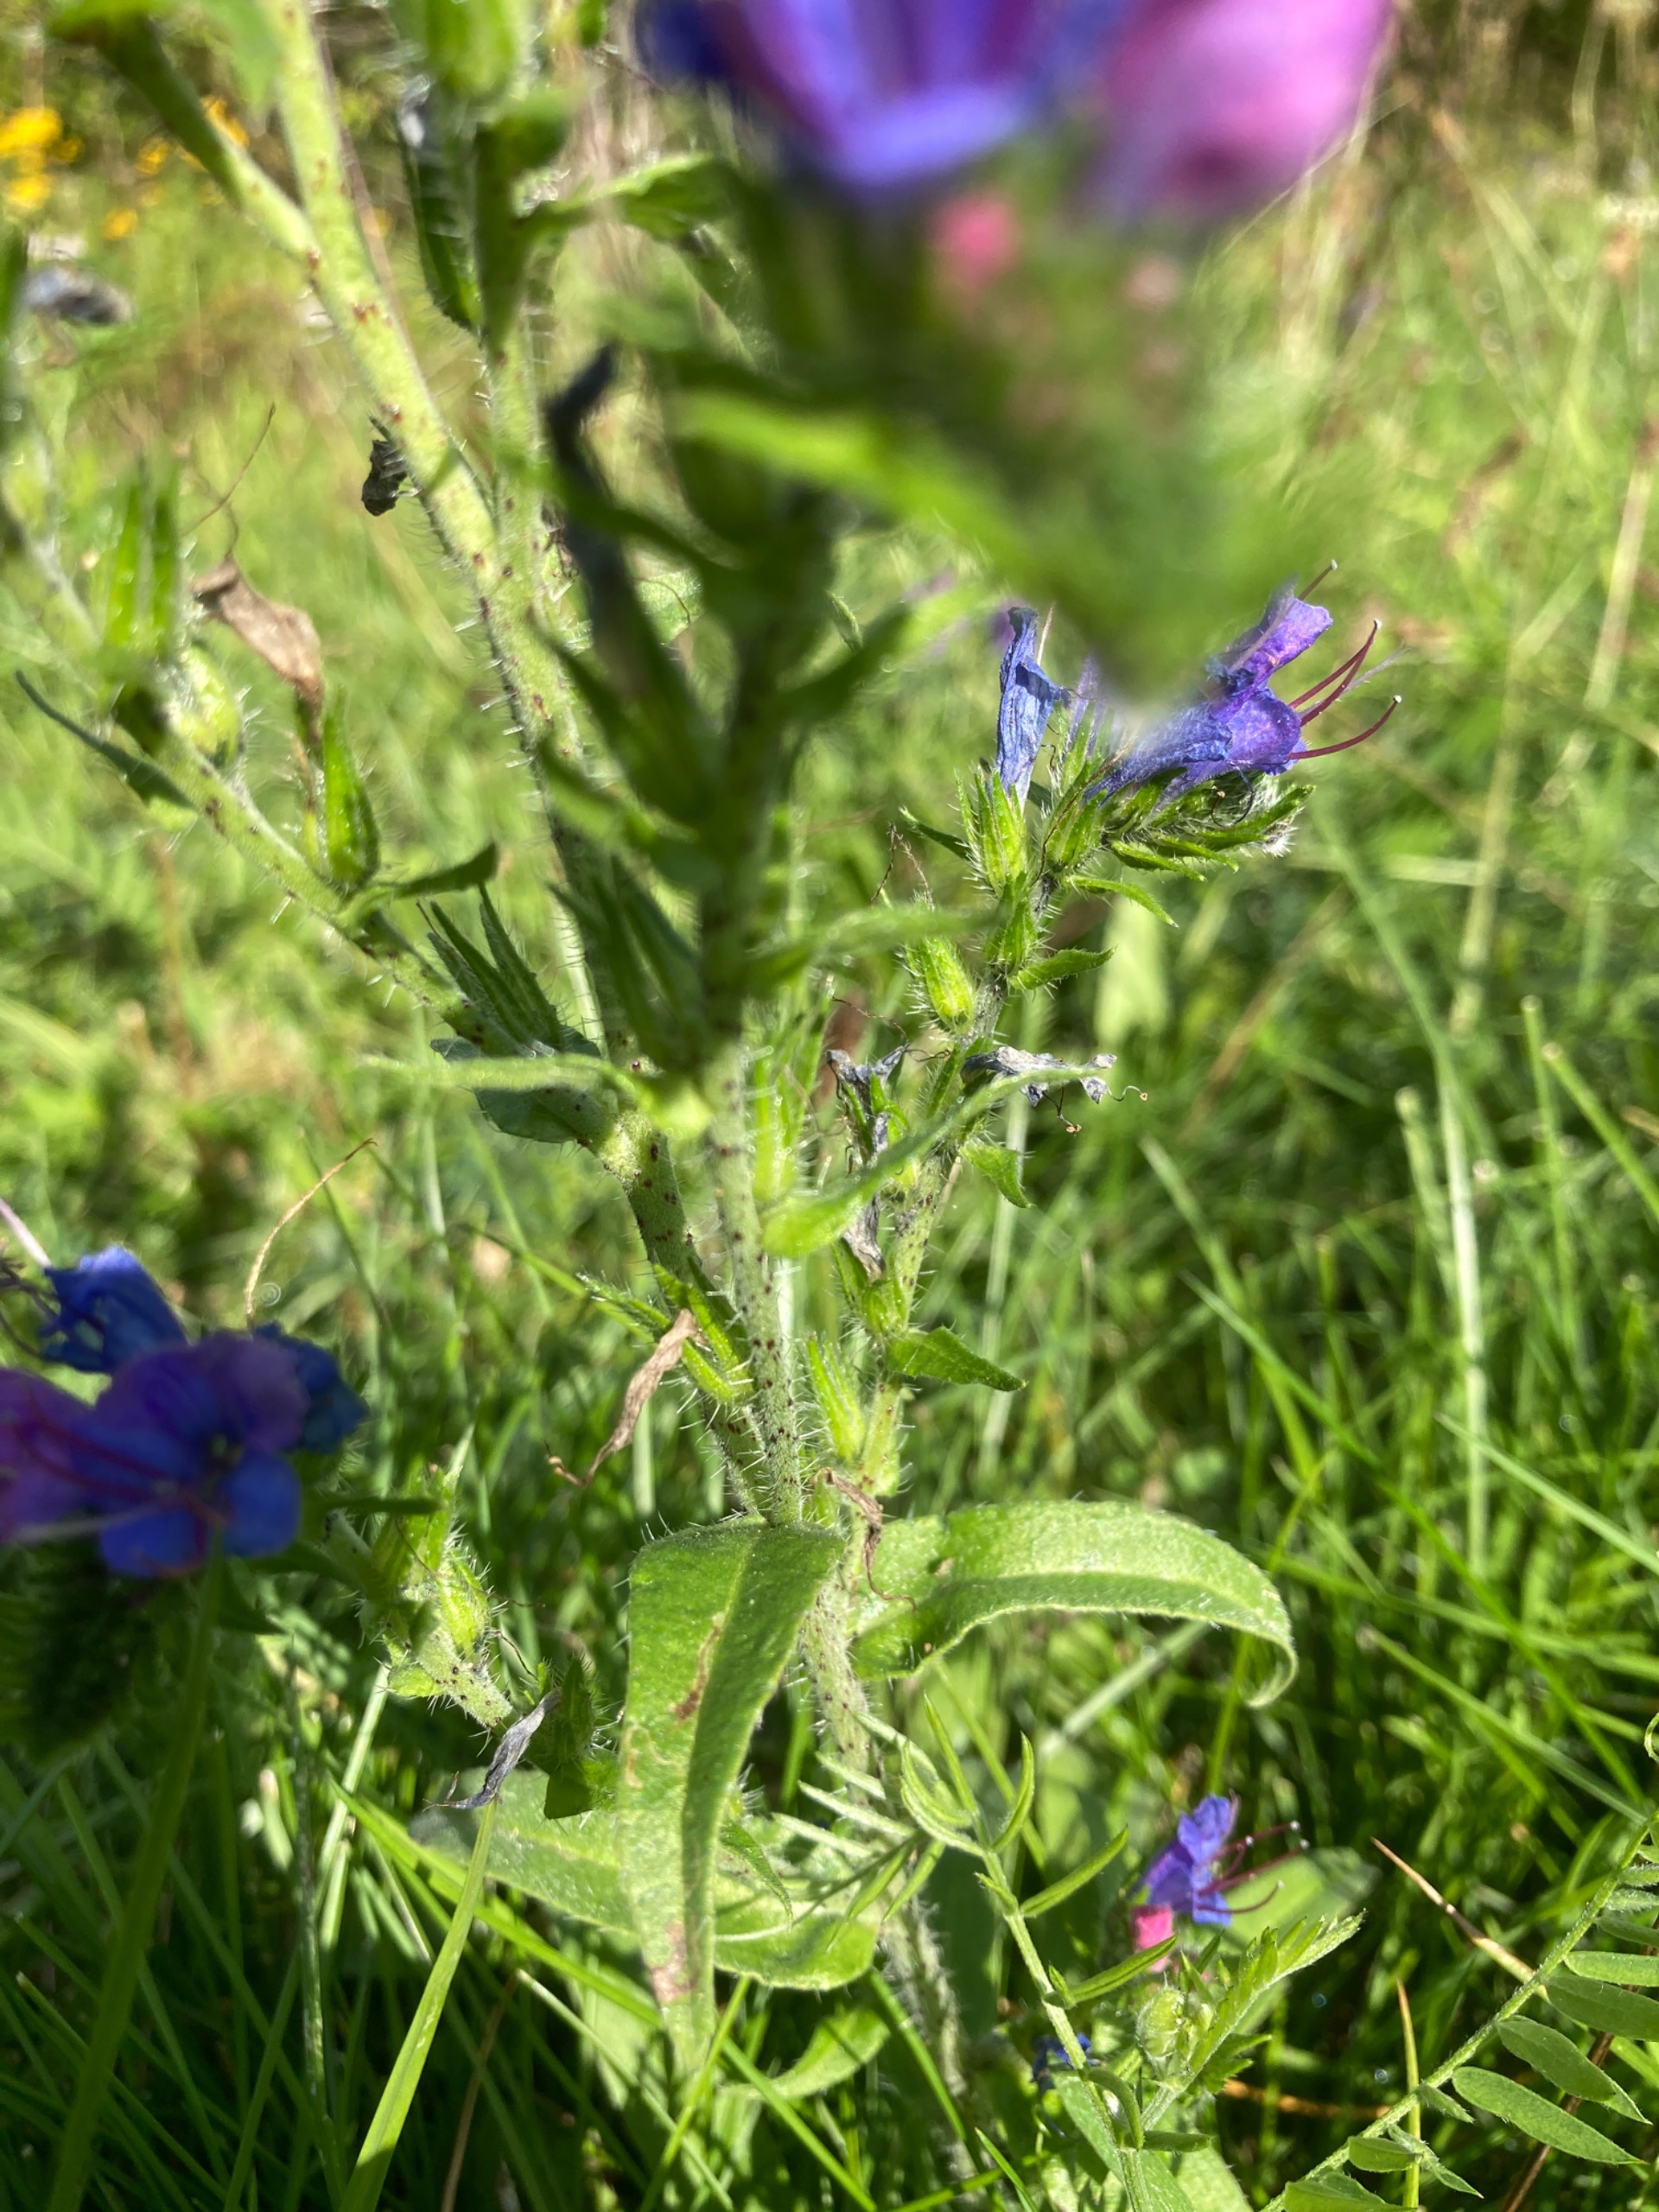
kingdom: Plantae
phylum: Tracheophyta
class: Magnoliopsida
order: Boraginales
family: Boraginaceae
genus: Echium
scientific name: Echium vulgare
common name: Slangehoved
